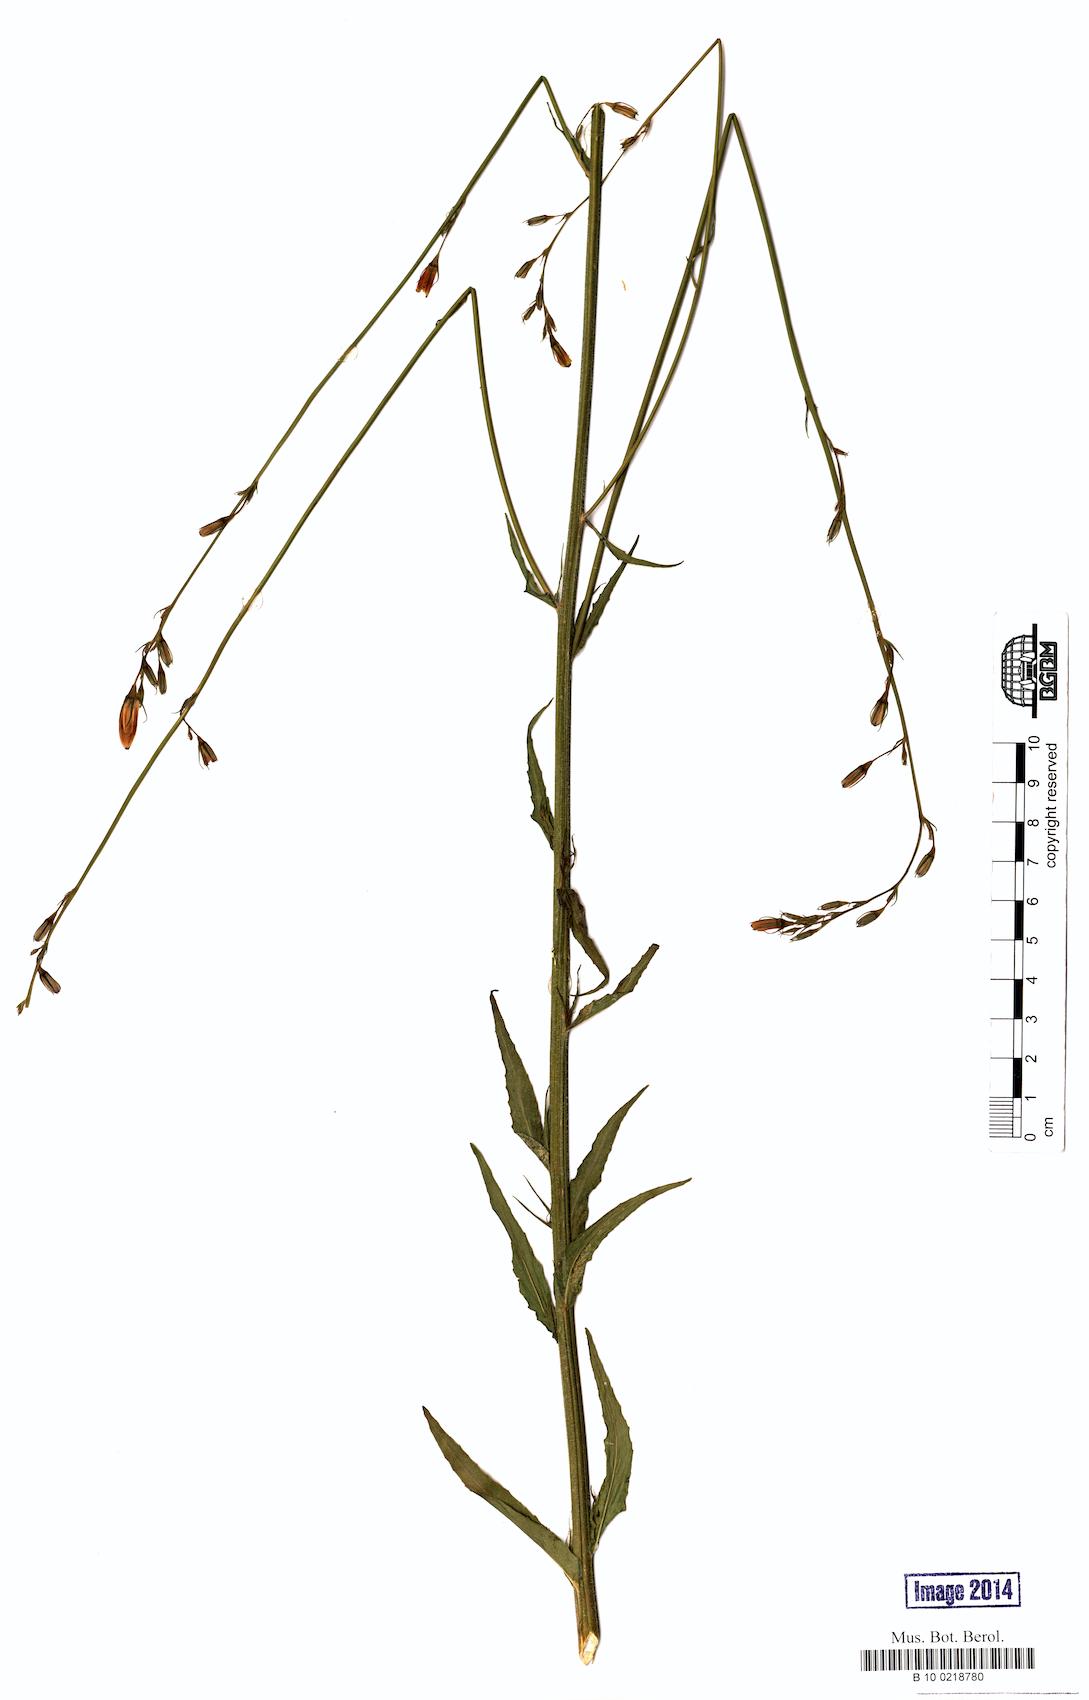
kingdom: Plantae
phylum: Tracheophyta
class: Magnoliopsida
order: Asterales
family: Campanulaceae
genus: Campanula
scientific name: Campanula rapunculus
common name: Rampion bellflower
